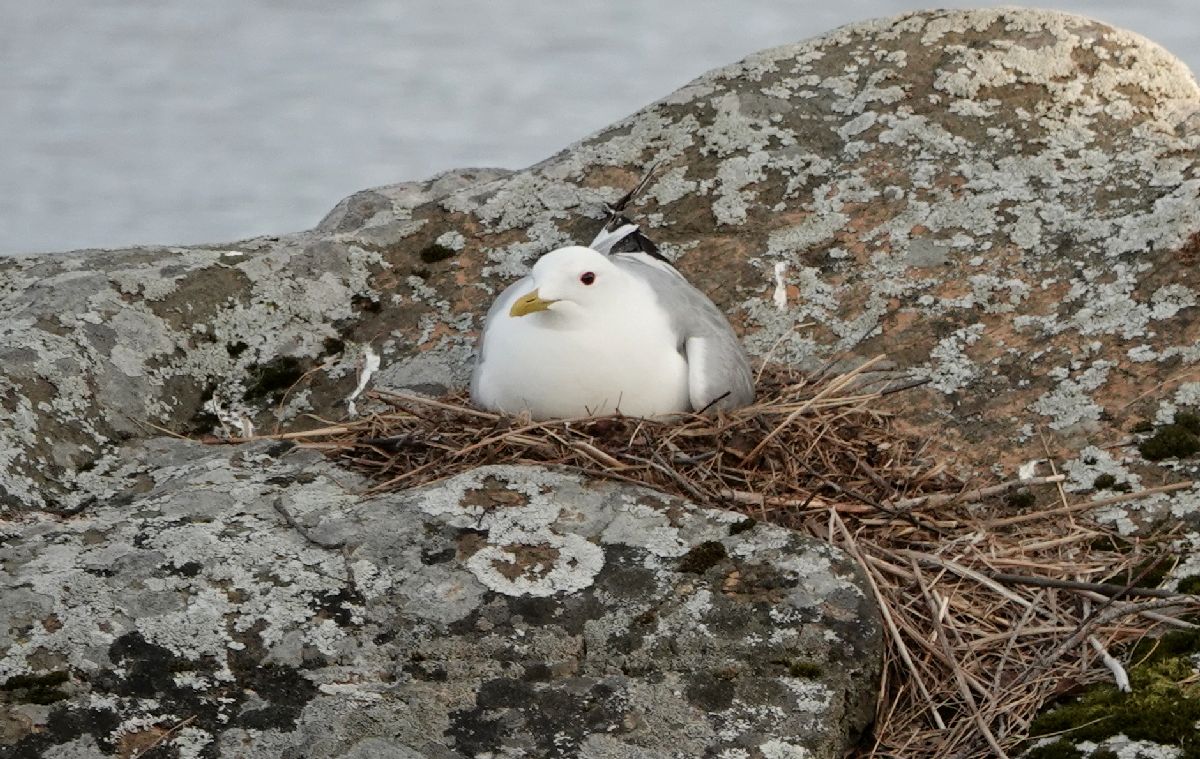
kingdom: Animalia
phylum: Chordata
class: Aves
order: Charadriiformes
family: Laridae
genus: Larus
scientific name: Larus canus
